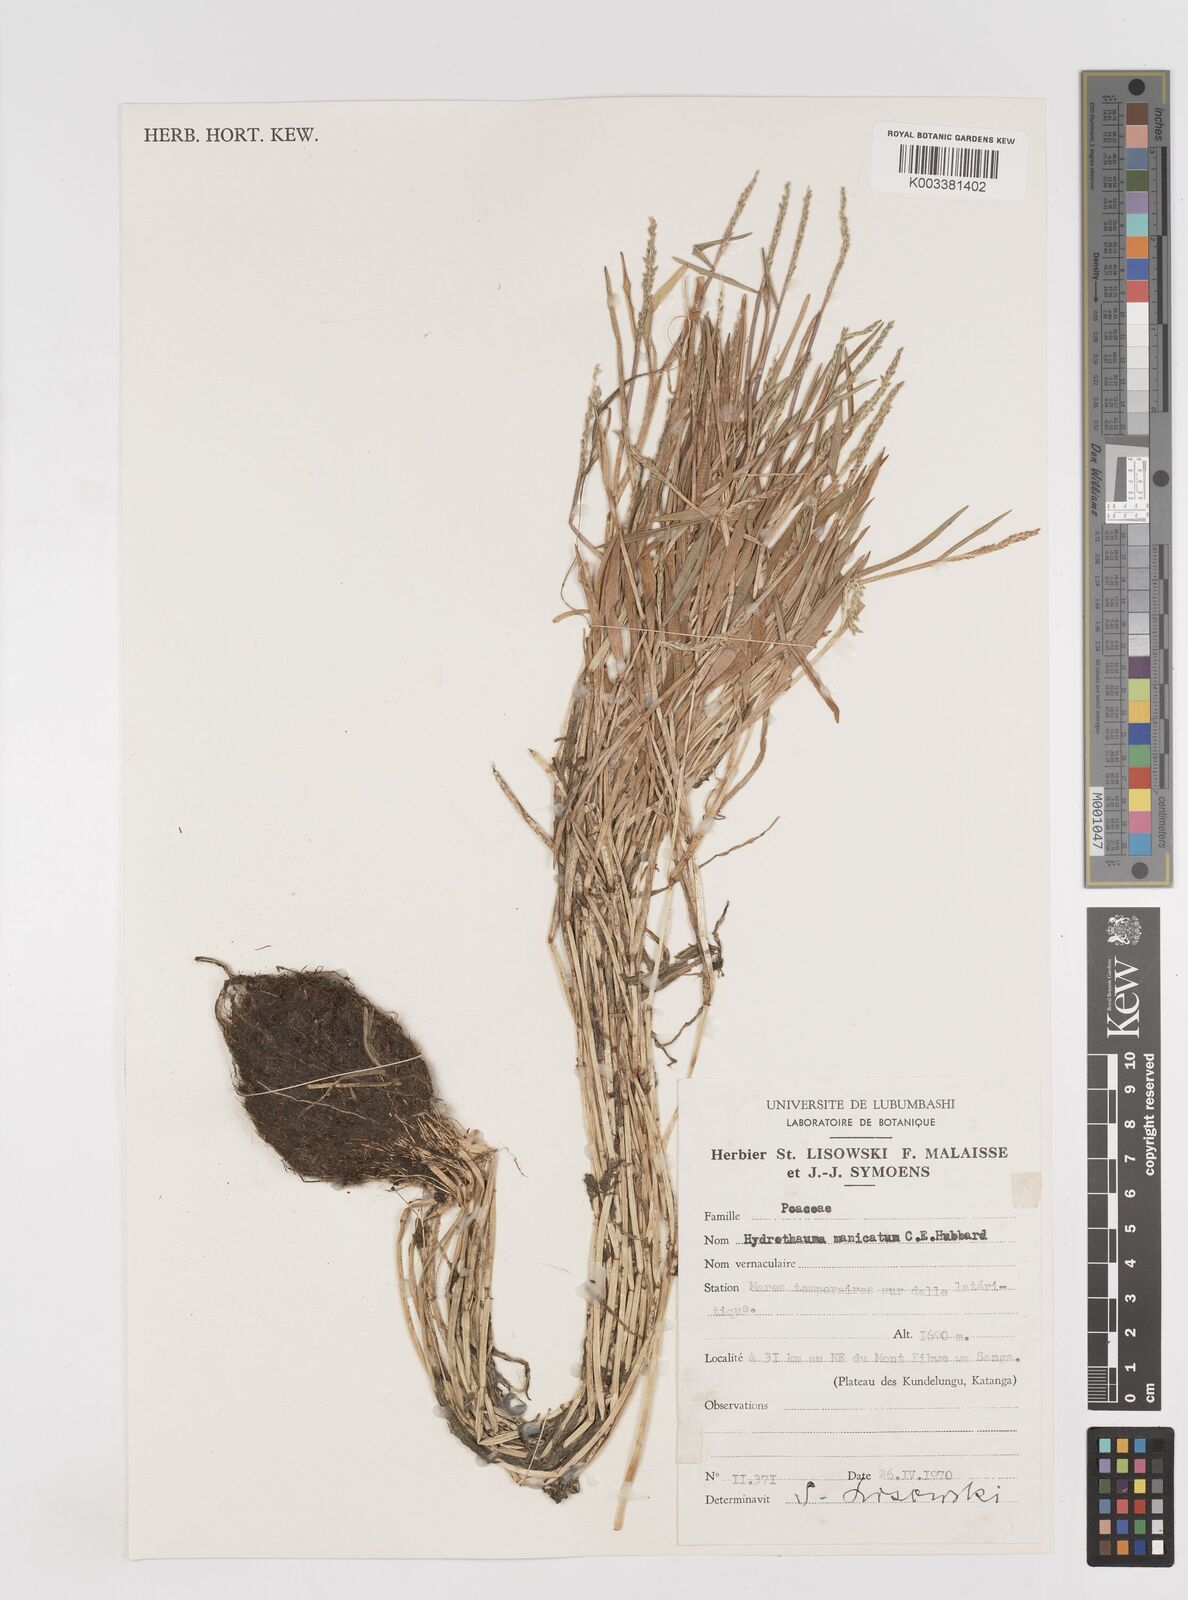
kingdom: Plantae
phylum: Tracheophyta
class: Liliopsida
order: Poales
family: Poaceae
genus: Hydrothauma
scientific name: Hydrothauma manicatum
